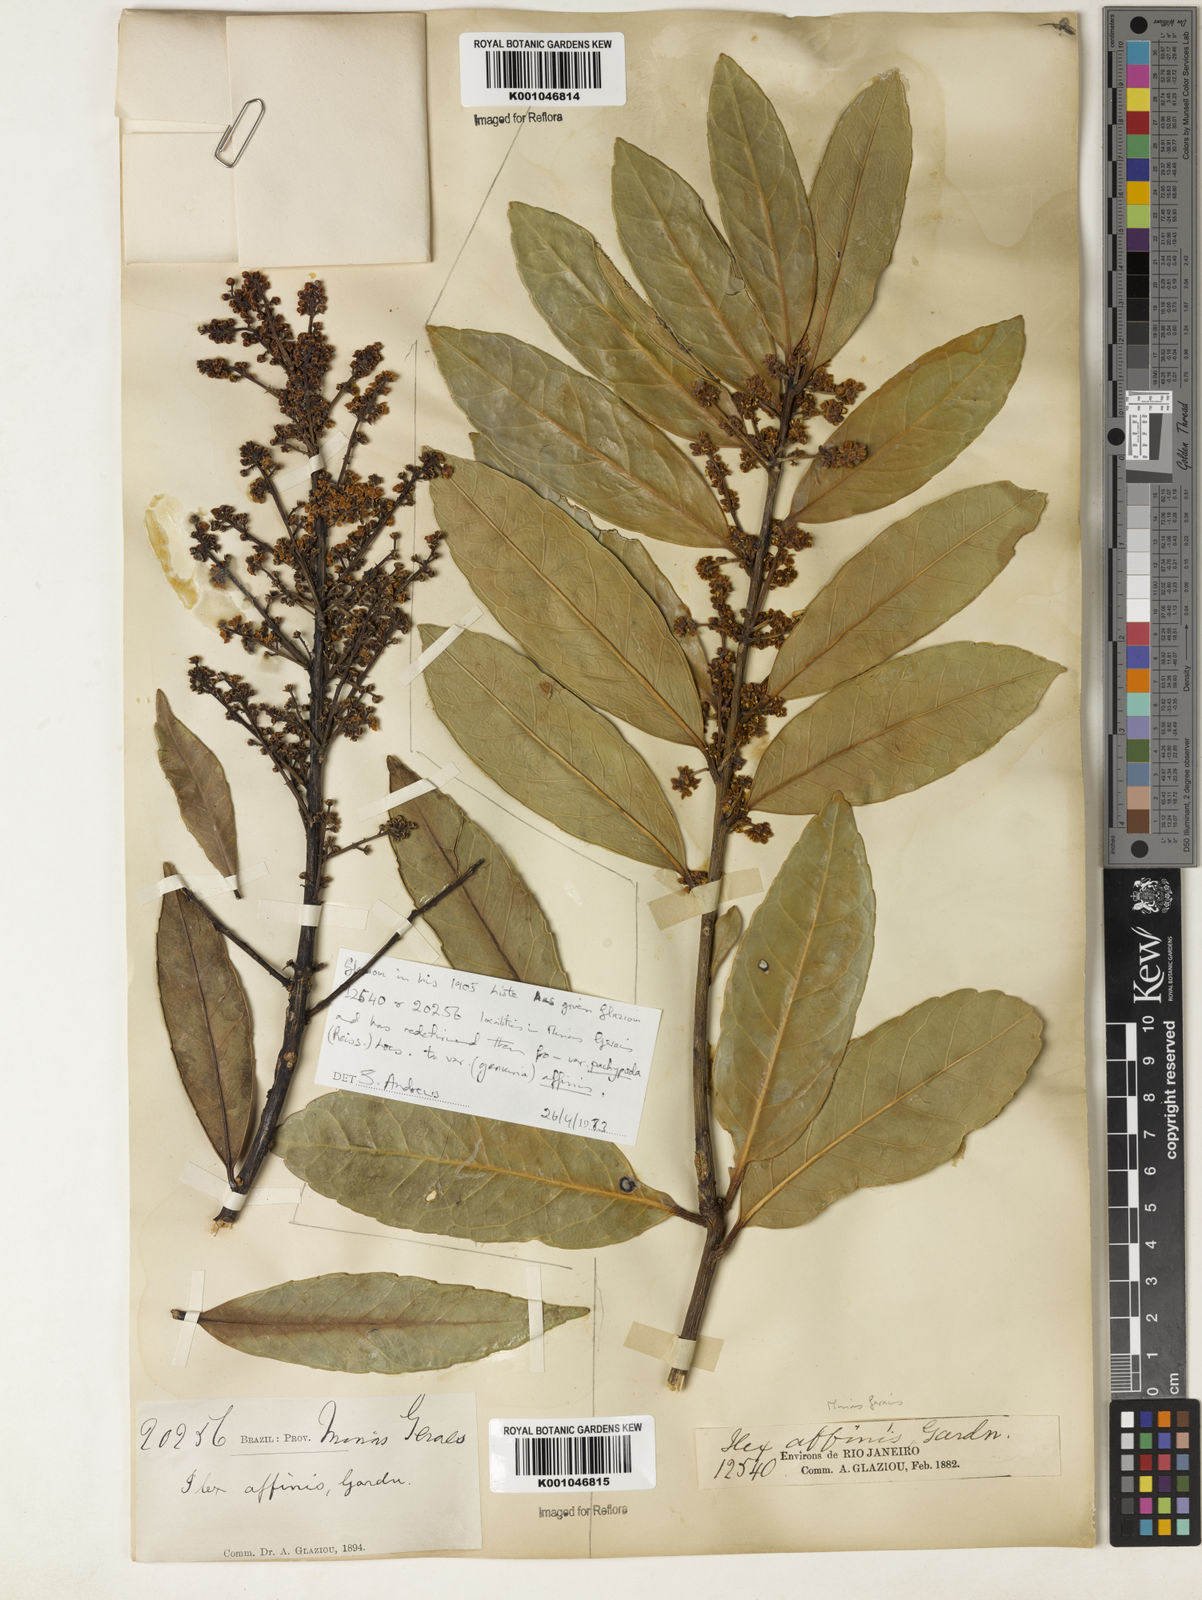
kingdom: Plantae
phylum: Tracheophyta
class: Magnoliopsida
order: Aquifoliales
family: Aquifoliaceae
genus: Ilex
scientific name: Ilex affinis
